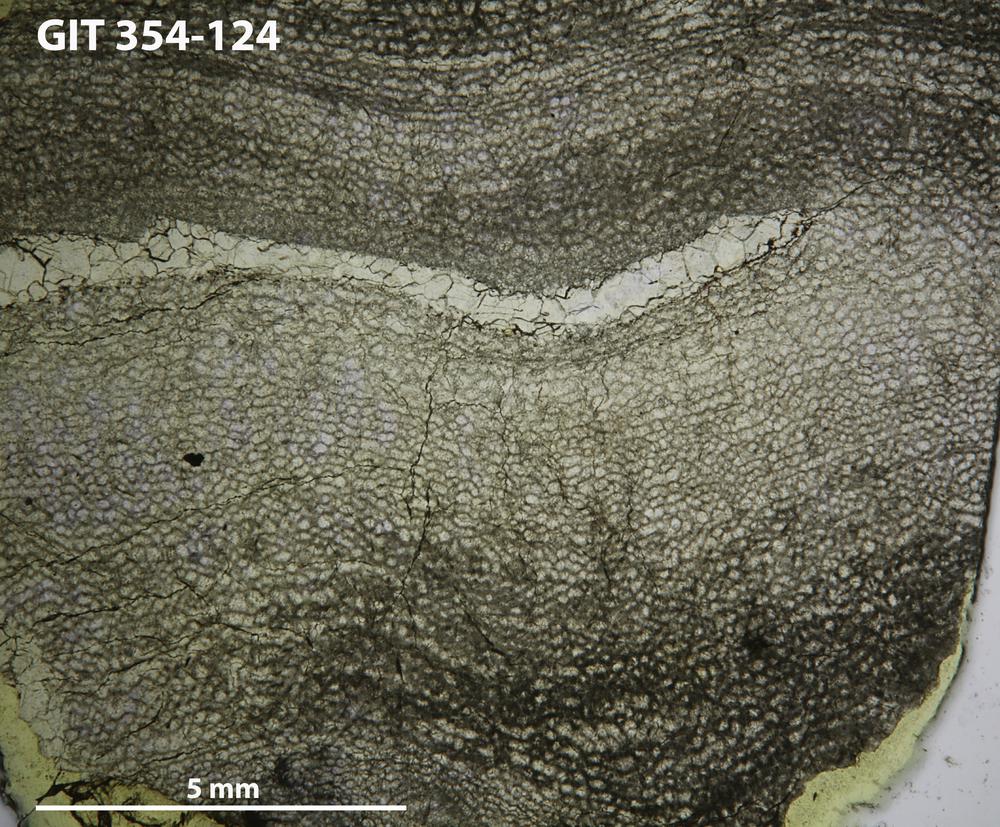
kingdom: Animalia
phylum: Porifera
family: Clathrodictyidae
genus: Clathrodictyon
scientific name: Clathrodictyon boreale
